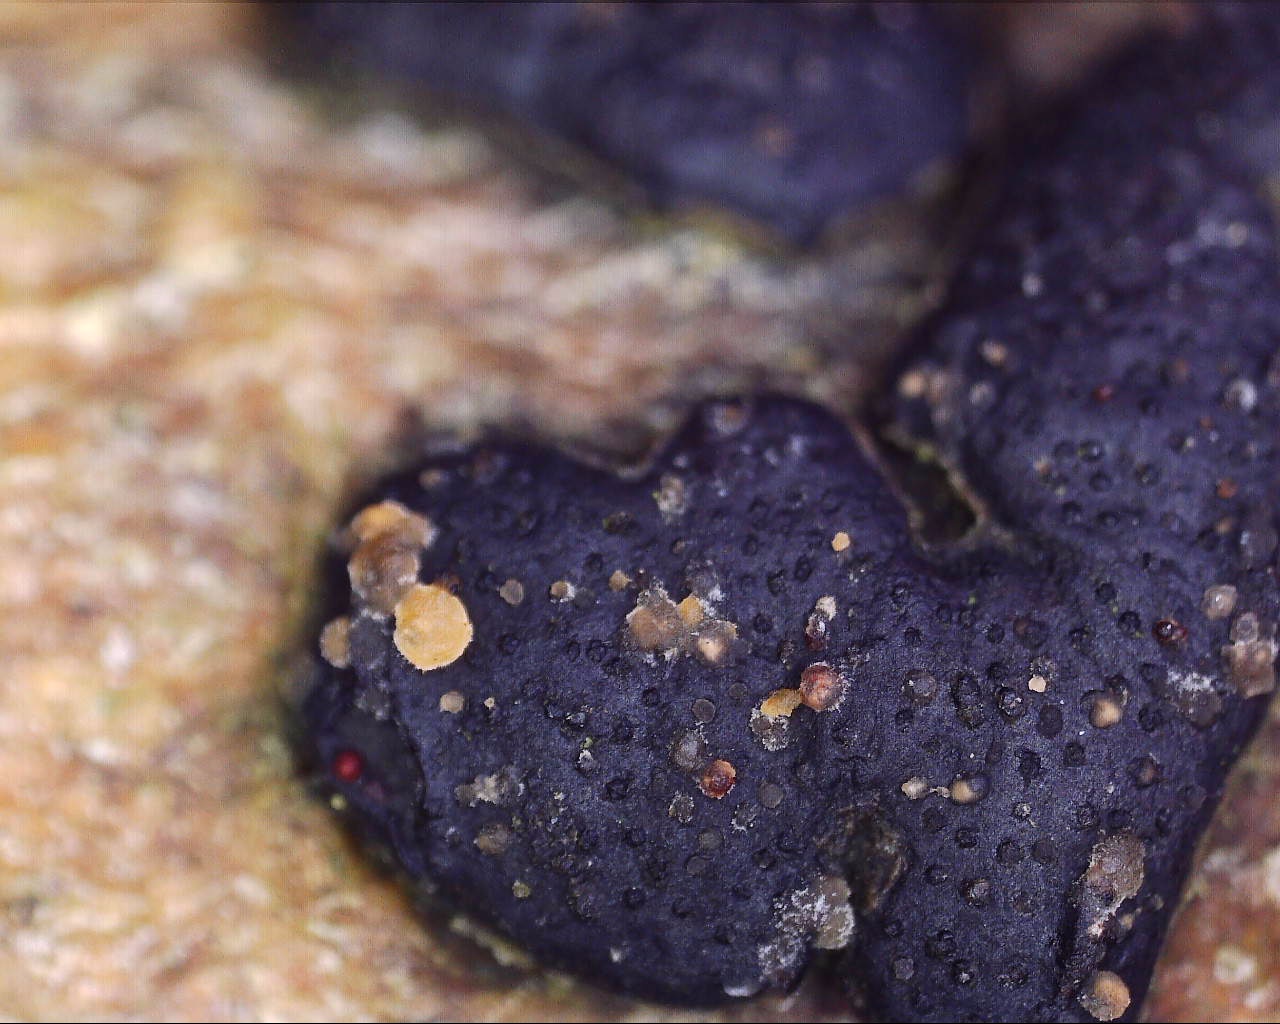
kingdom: Fungi
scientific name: Fungi
